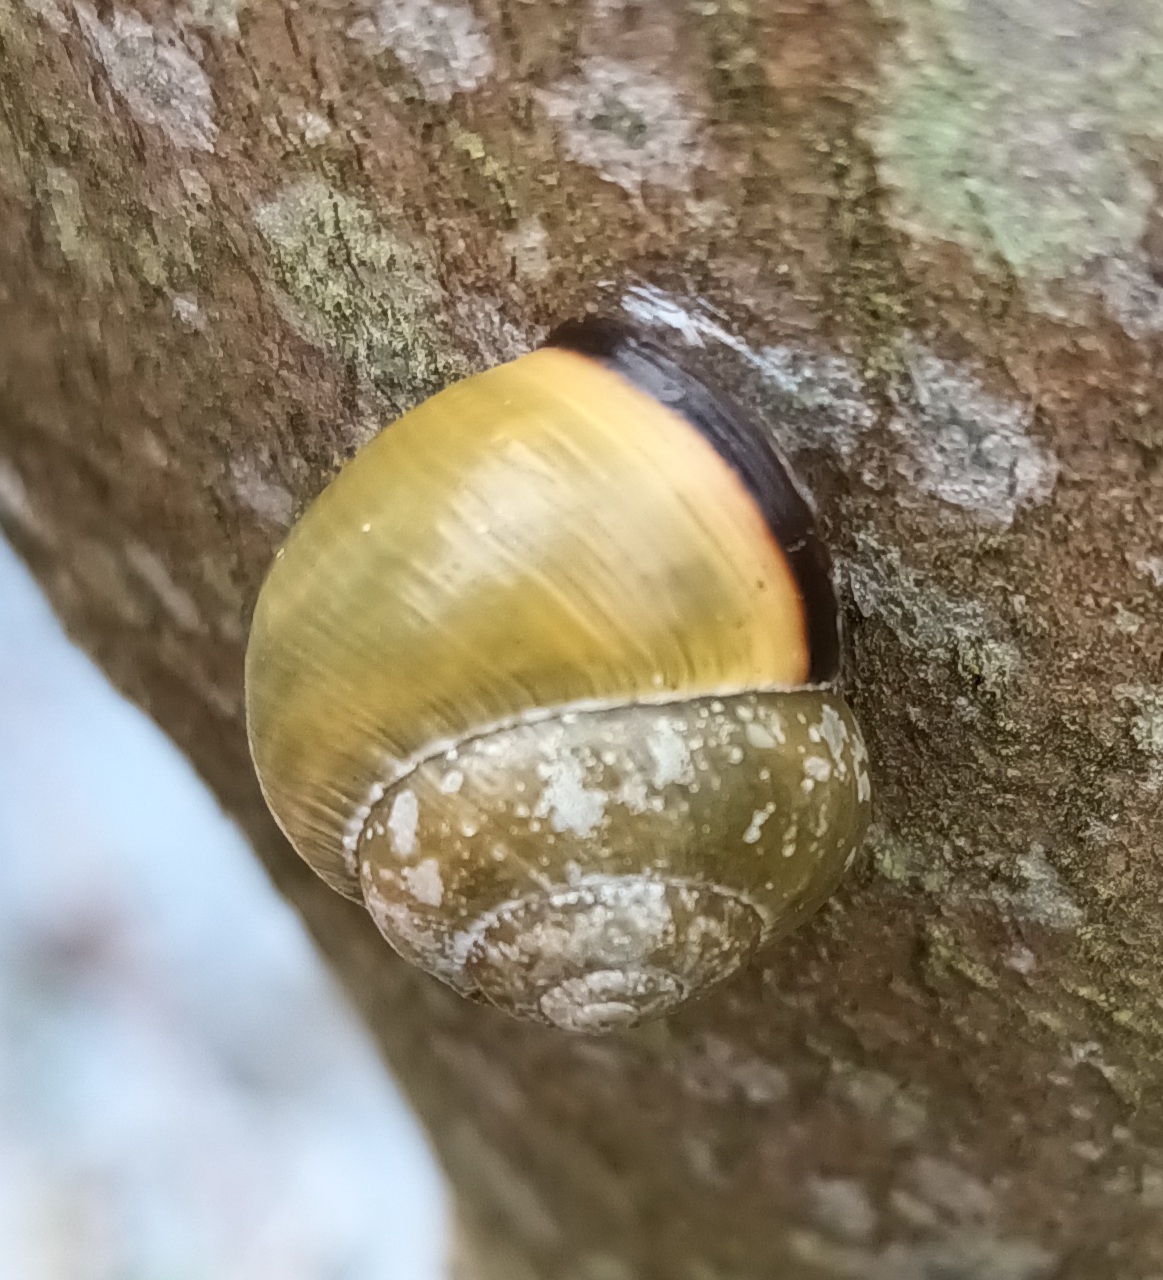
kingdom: Animalia
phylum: Mollusca
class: Gastropoda
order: Stylommatophora
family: Helicidae
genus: Cepaea
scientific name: Cepaea nemoralis
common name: Lundsnegl
